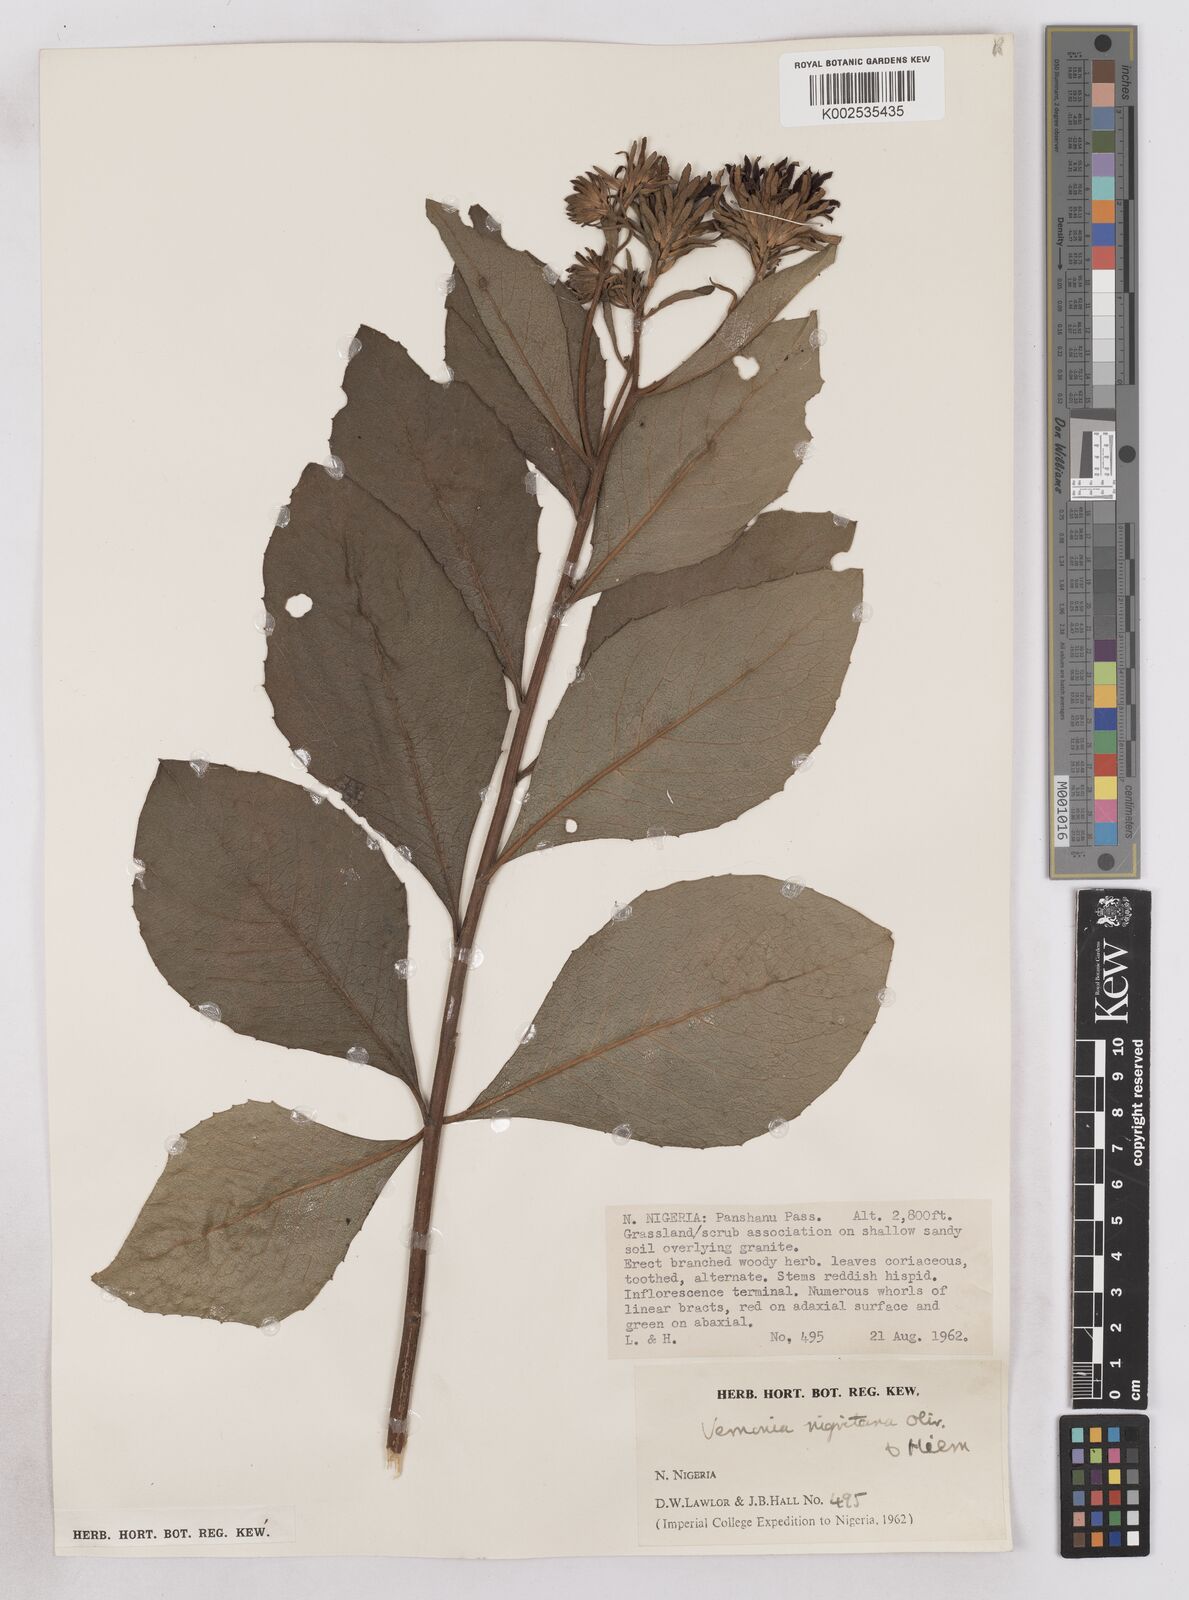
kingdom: Plantae
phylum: Tracheophyta
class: Magnoliopsida
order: Asterales
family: Asteraceae
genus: Linzia
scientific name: Linzia nigritiana
